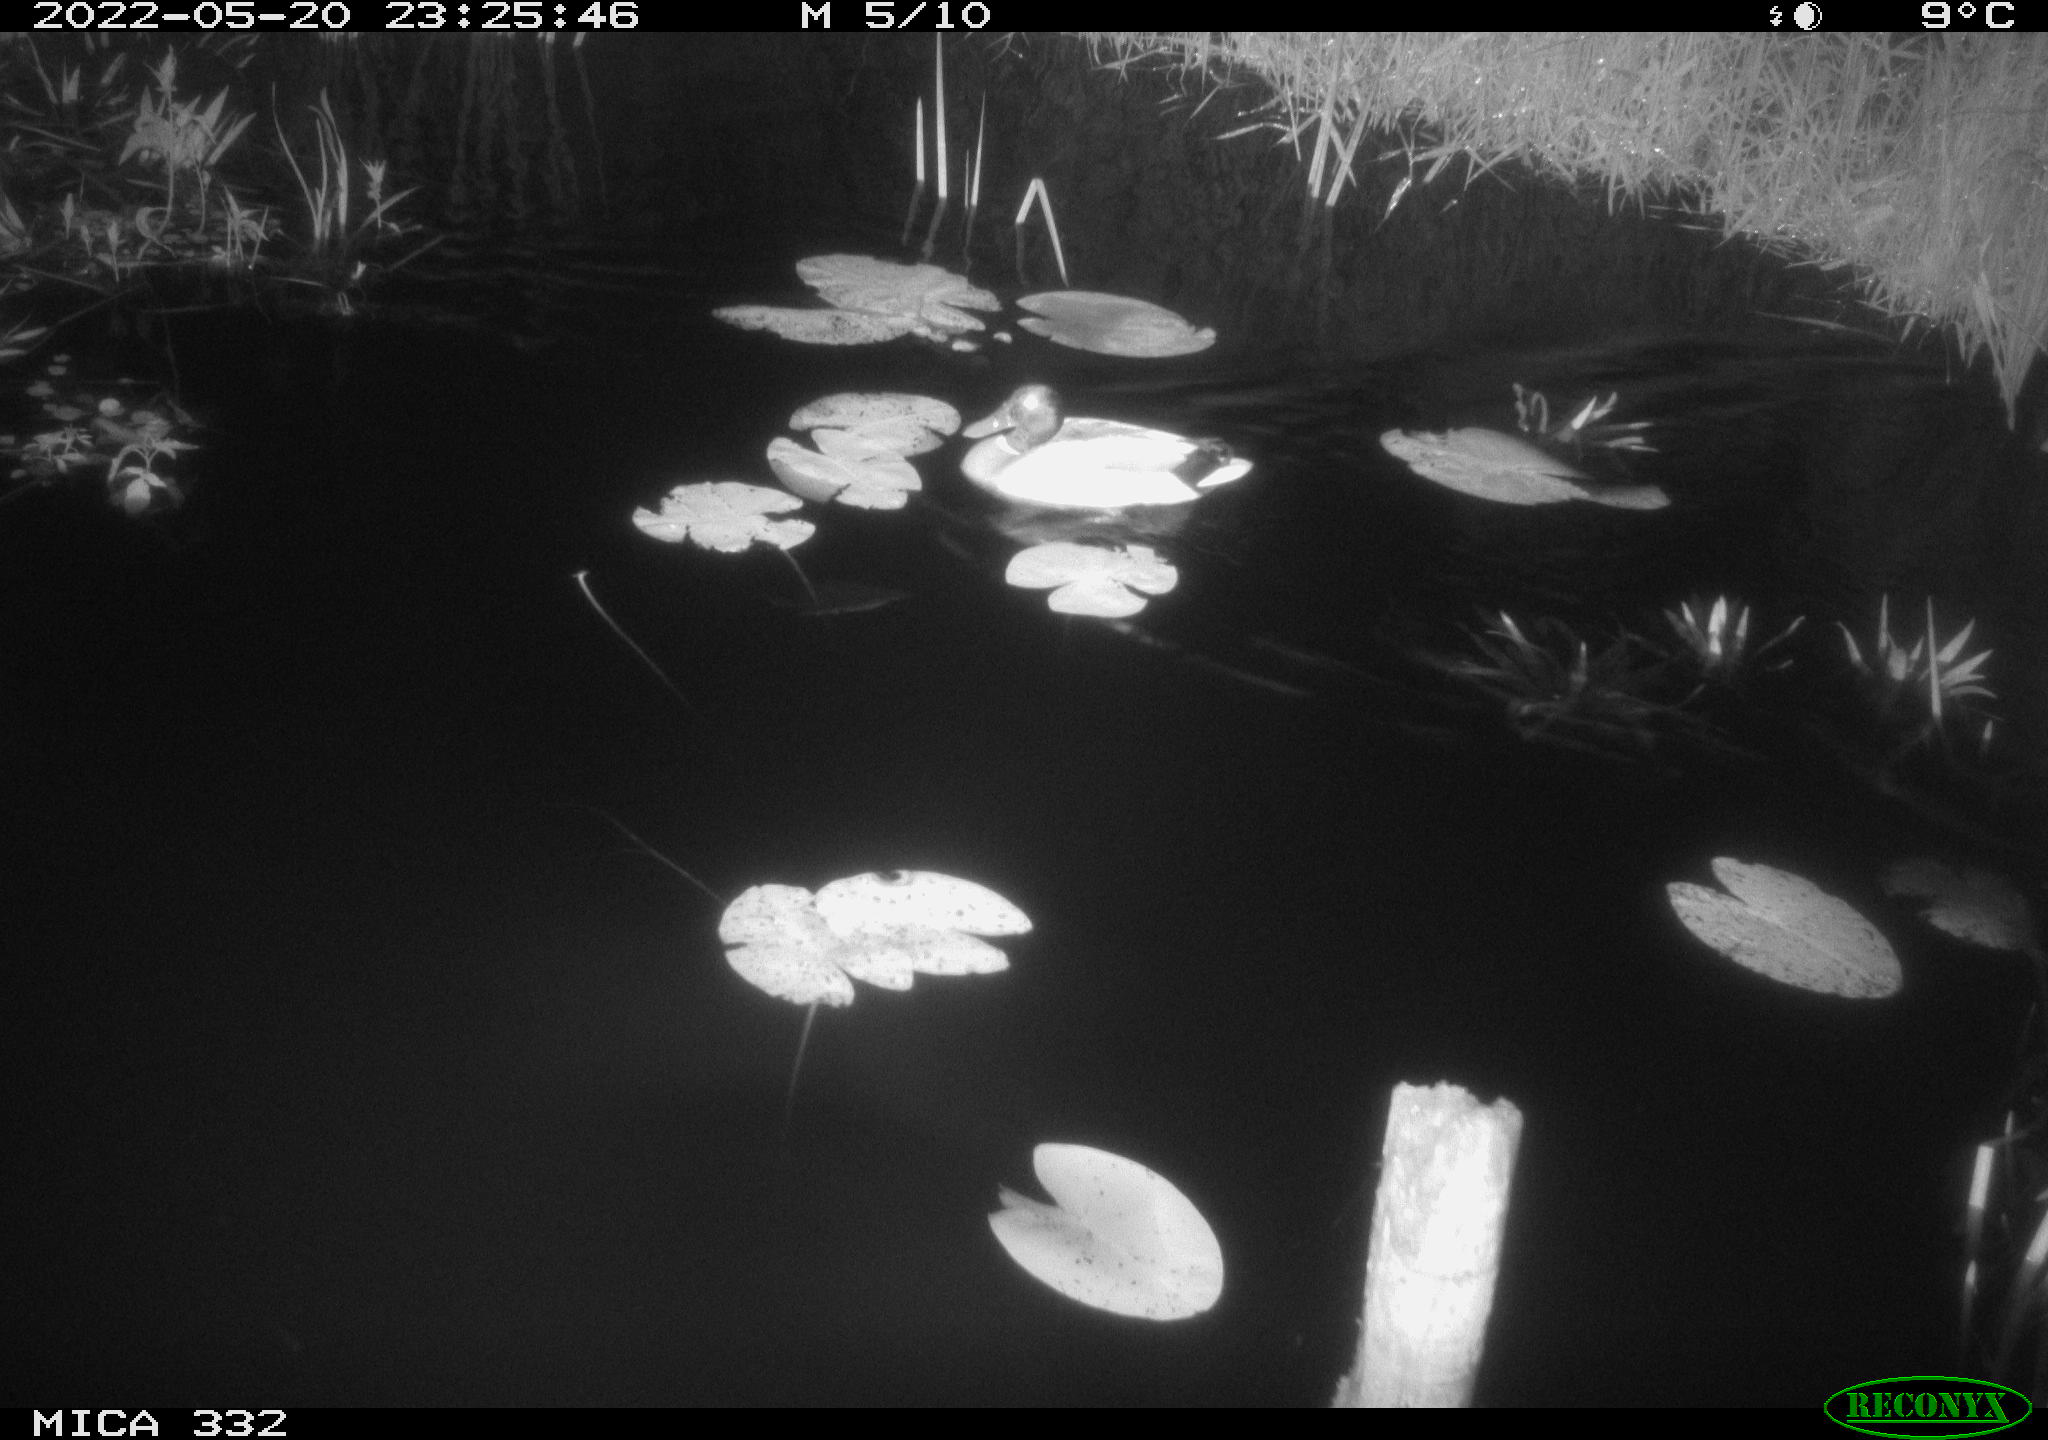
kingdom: Animalia
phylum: Chordata
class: Aves
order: Anseriformes
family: Anatidae
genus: Anas
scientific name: Anas platyrhynchos
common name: Mallard
